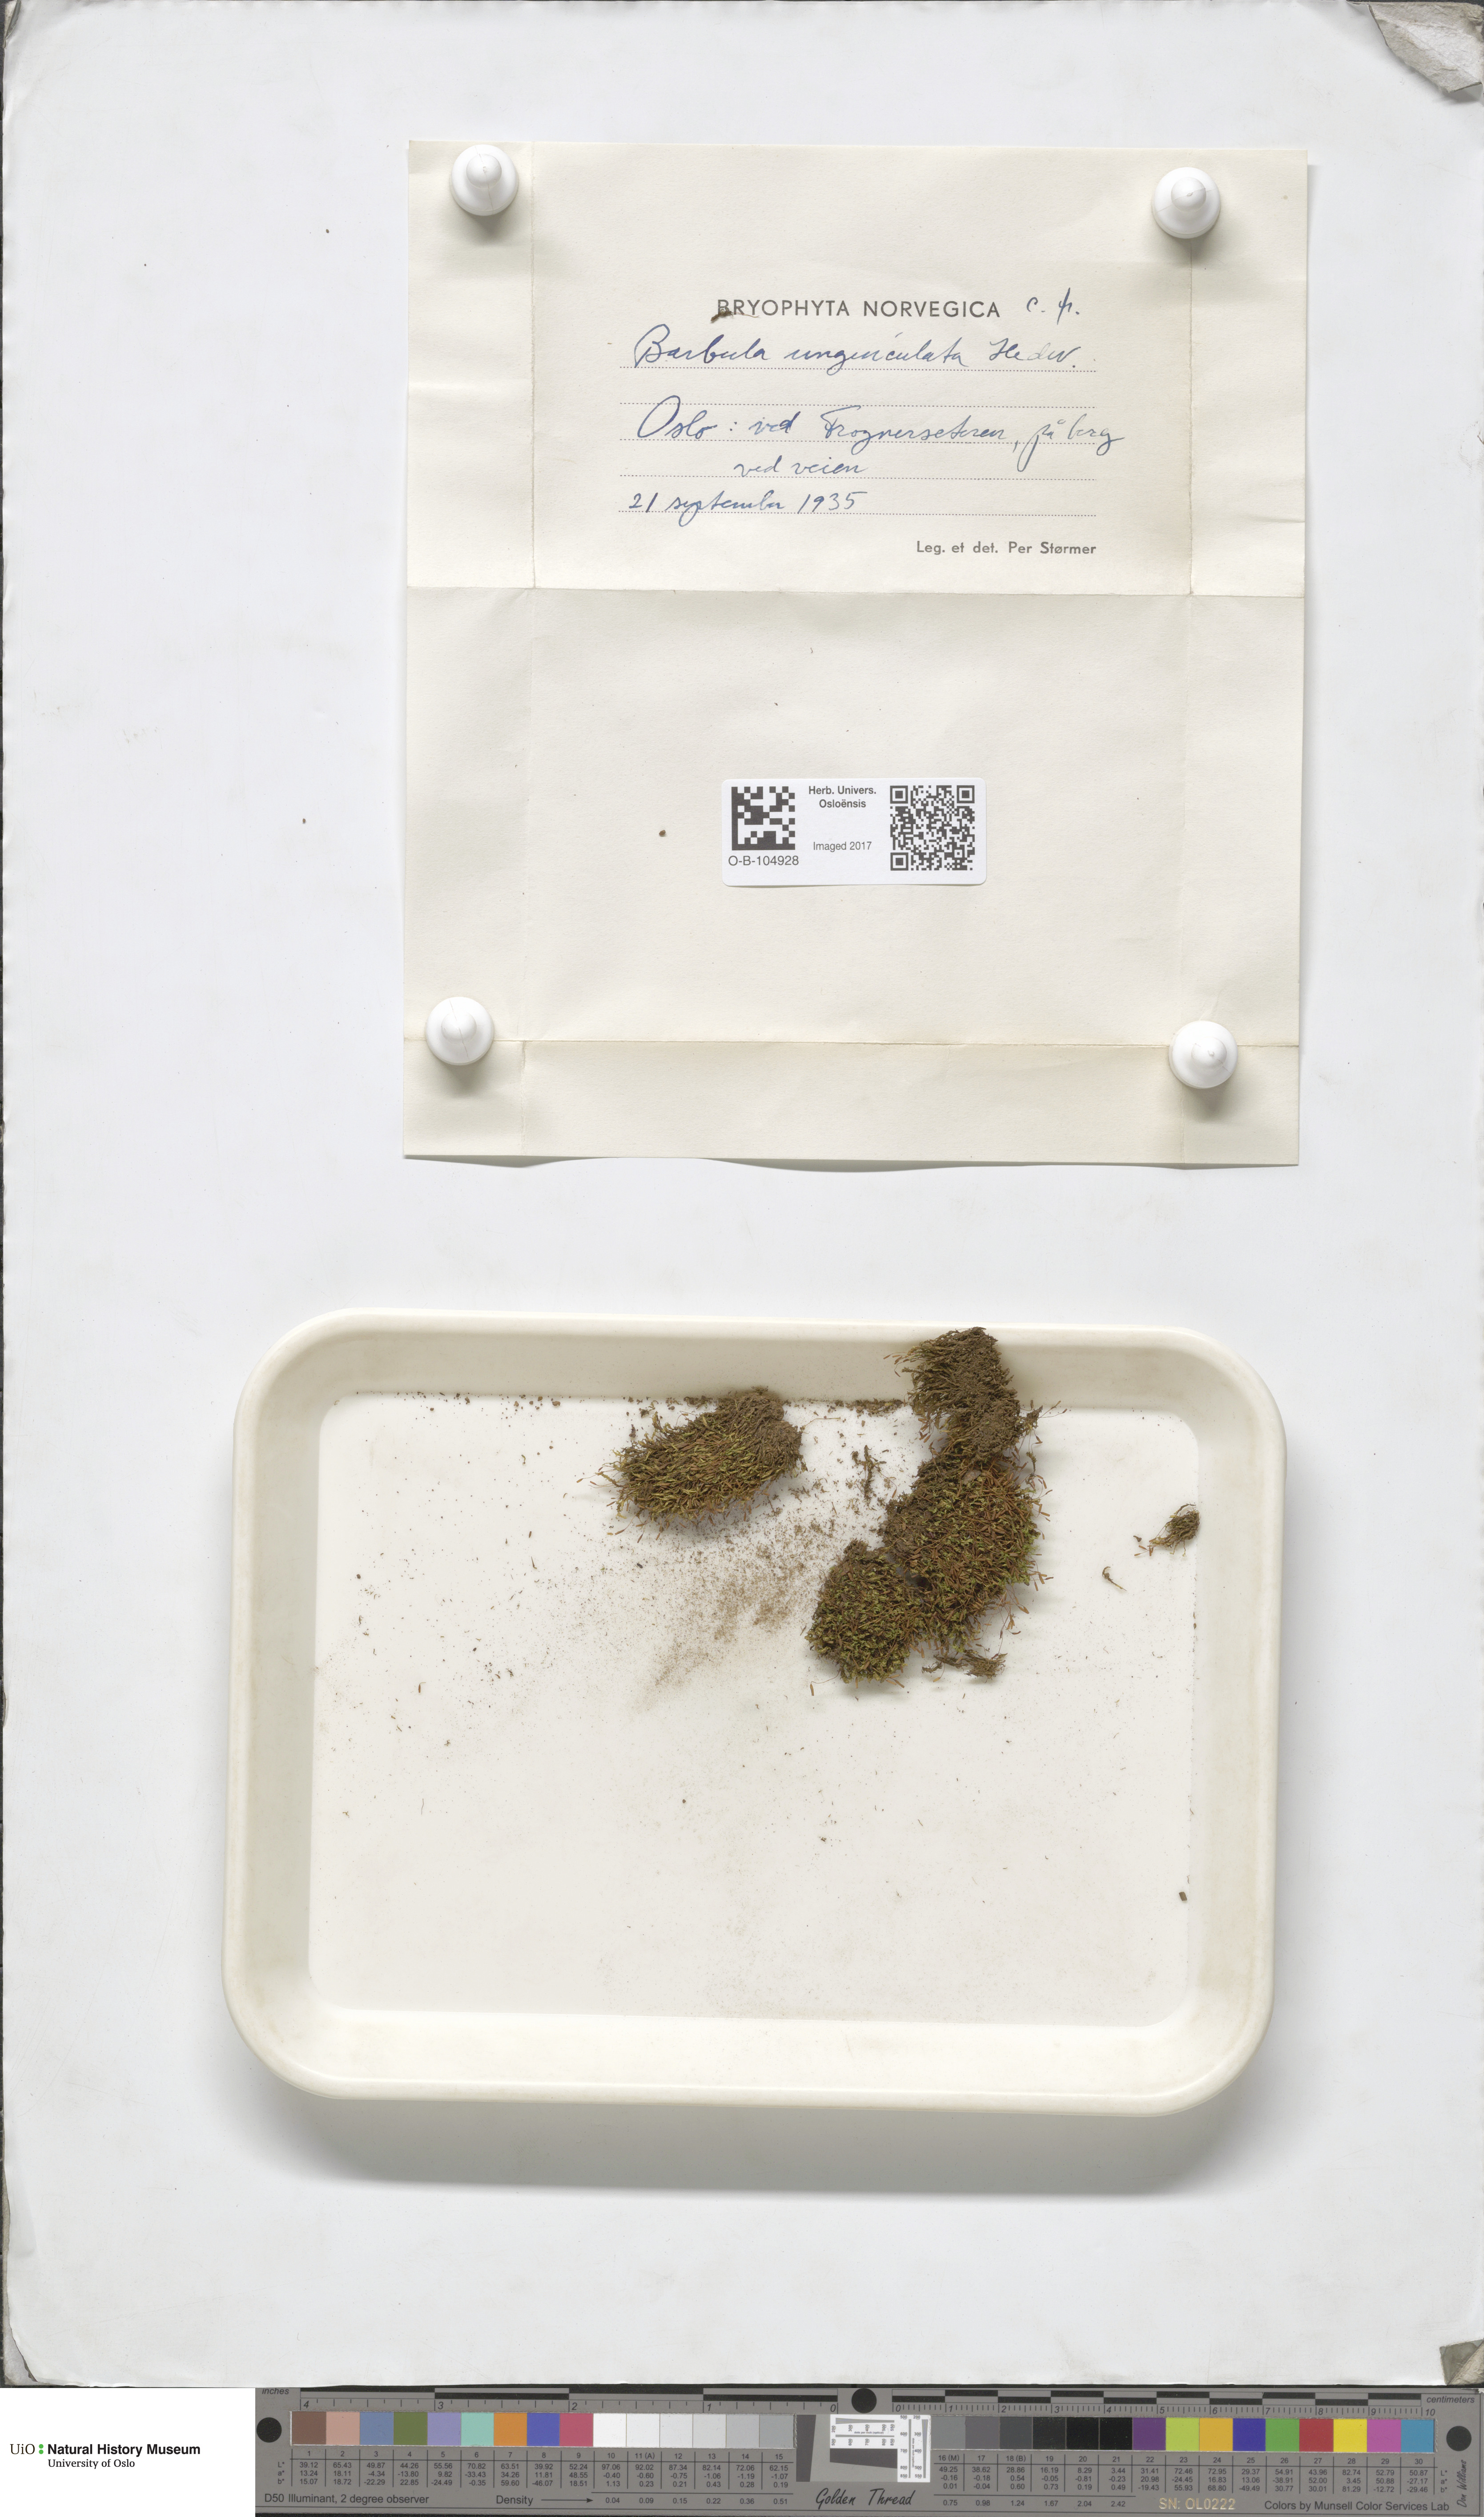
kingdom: Plantae
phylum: Bryophyta
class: Bryopsida
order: Pottiales
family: Pottiaceae
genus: Barbula
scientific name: Barbula unguiculata
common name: Prickly beard moss
